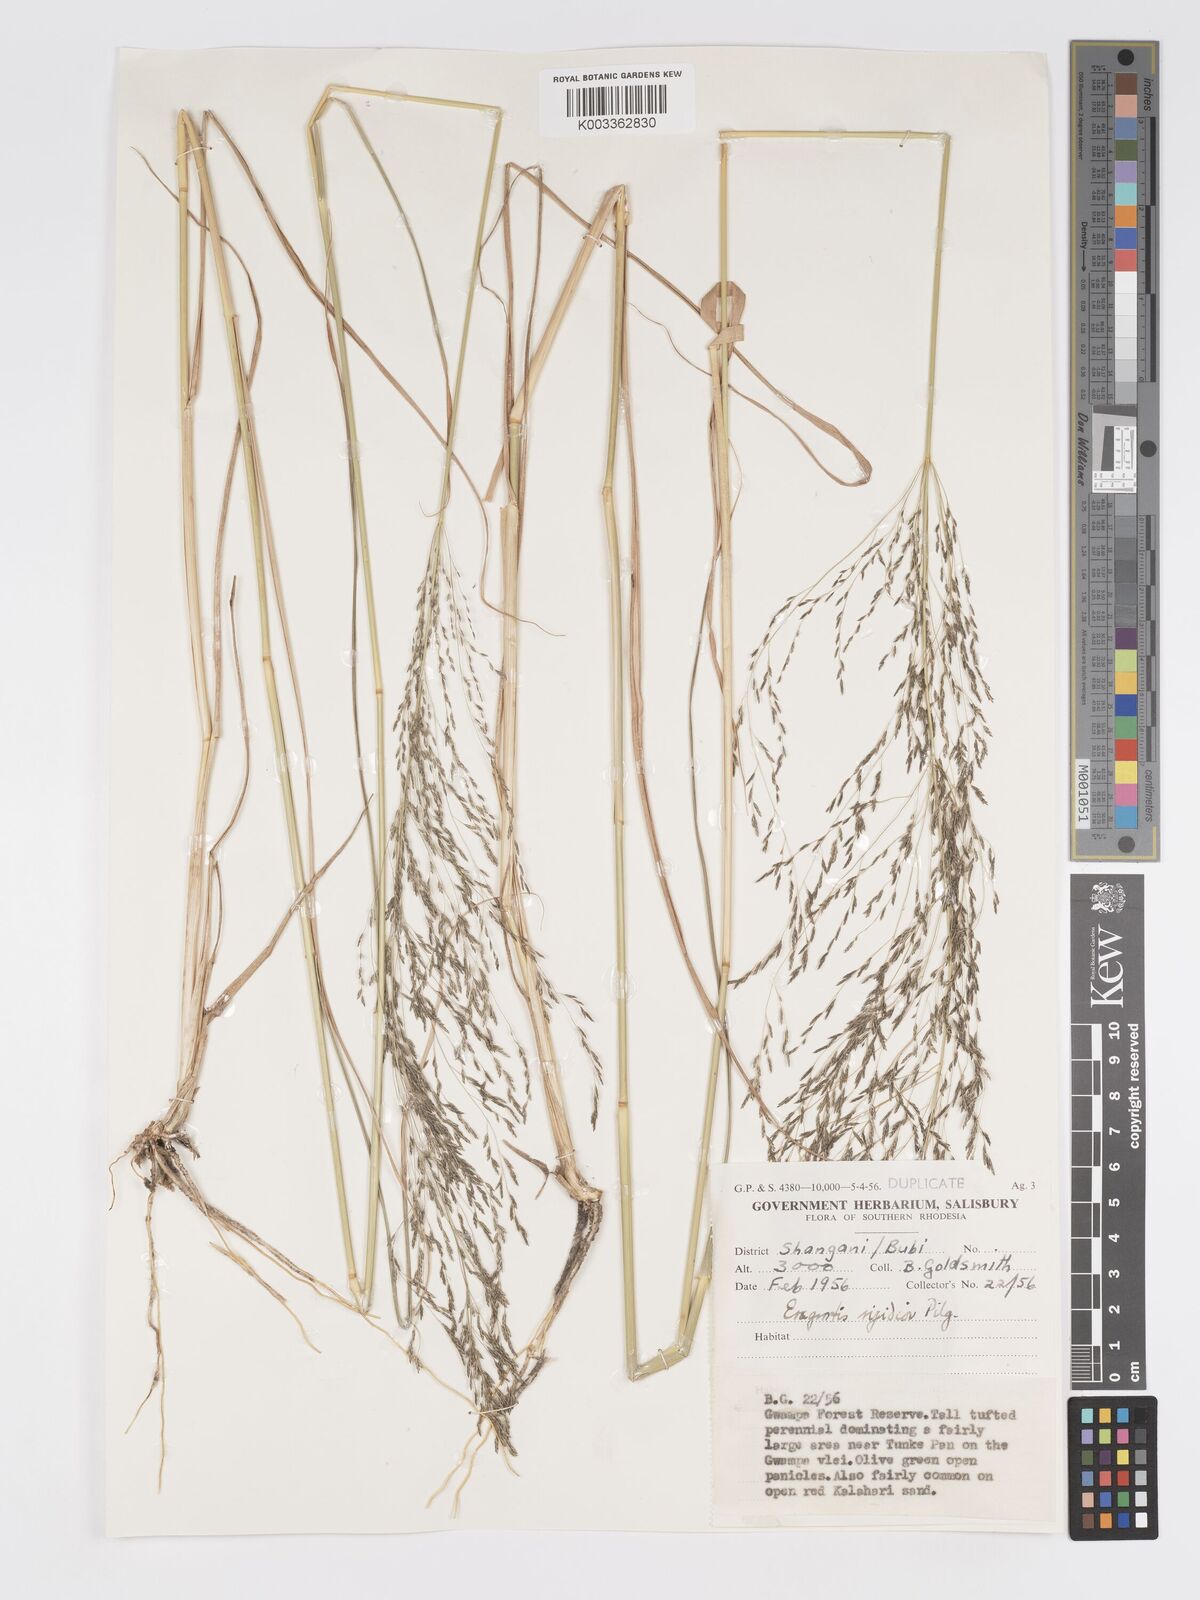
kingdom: Plantae
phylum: Tracheophyta
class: Liliopsida
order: Poales
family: Poaceae
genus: Eragrostis
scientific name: Eragrostis cylindriflora
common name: Cylinderflower lovegrass
